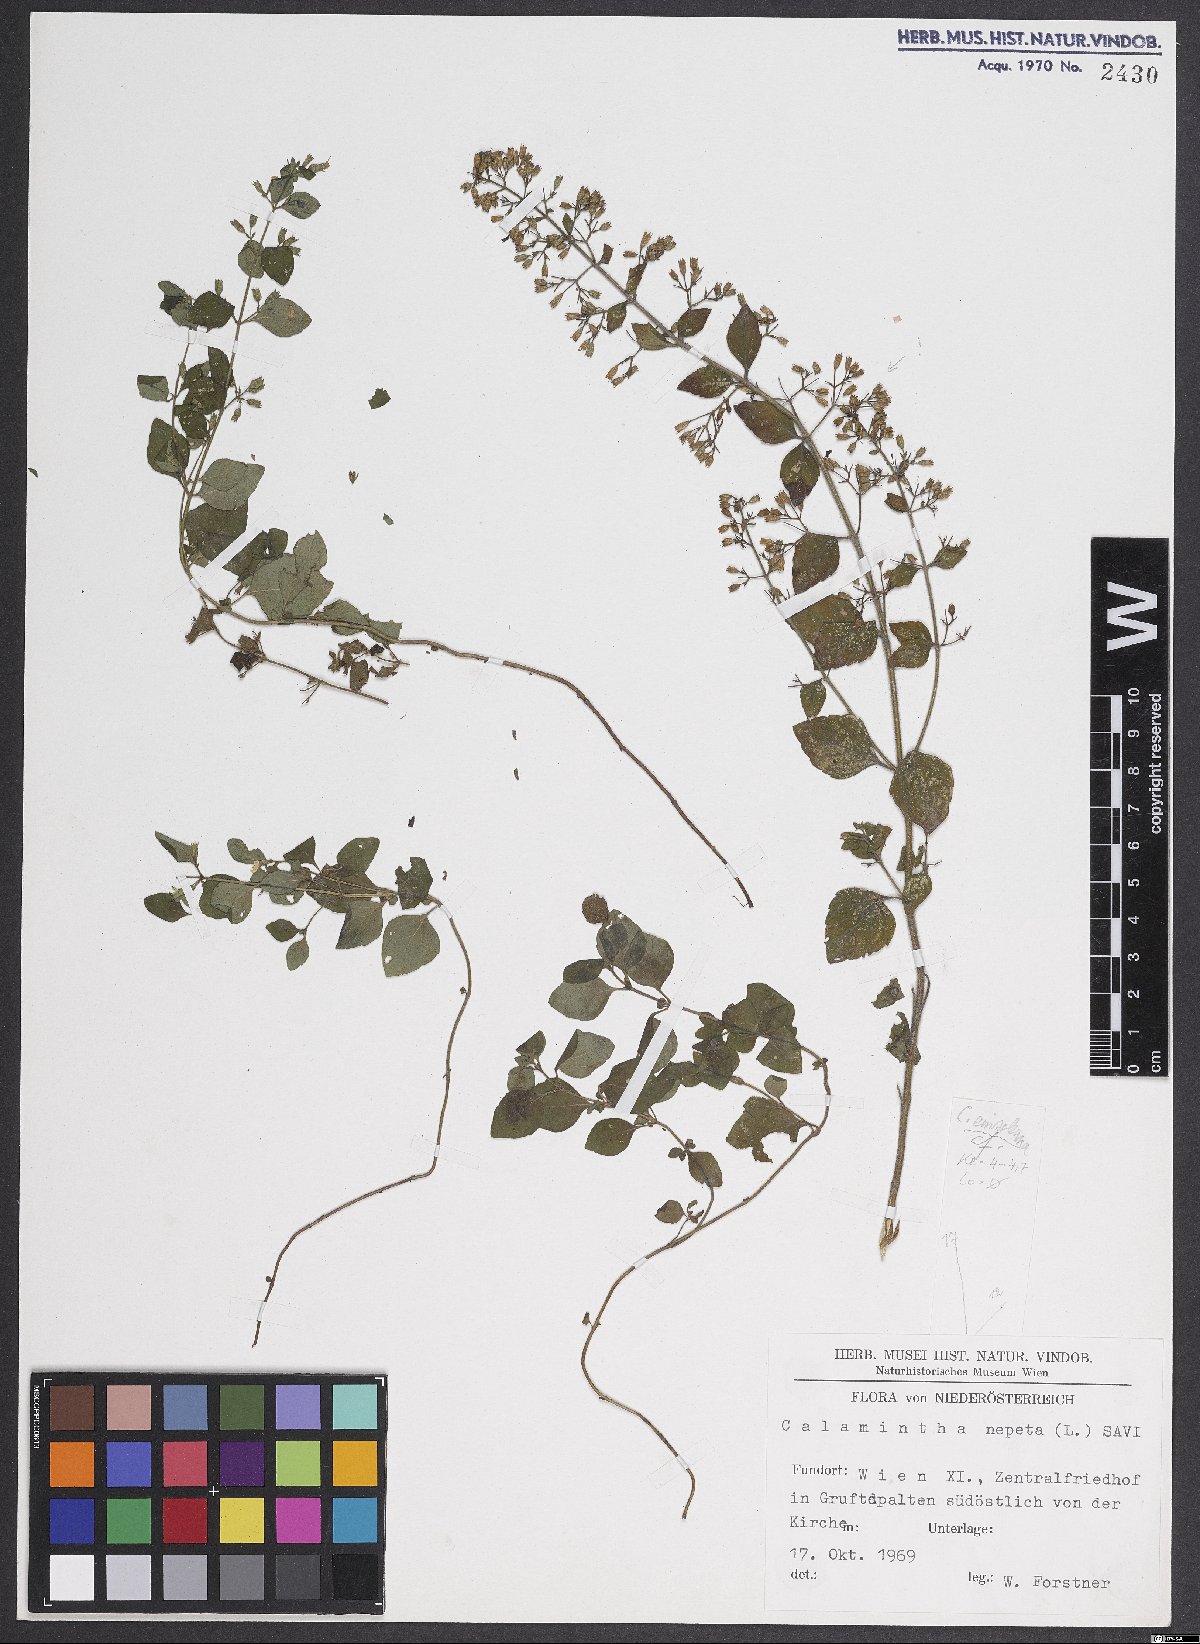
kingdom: Plantae
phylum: Tracheophyta
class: Magnoliopsida
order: Lamiales
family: Lamiaceae
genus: Clinopodium
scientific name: Clinopodium nepeta
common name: Lesser calamint
